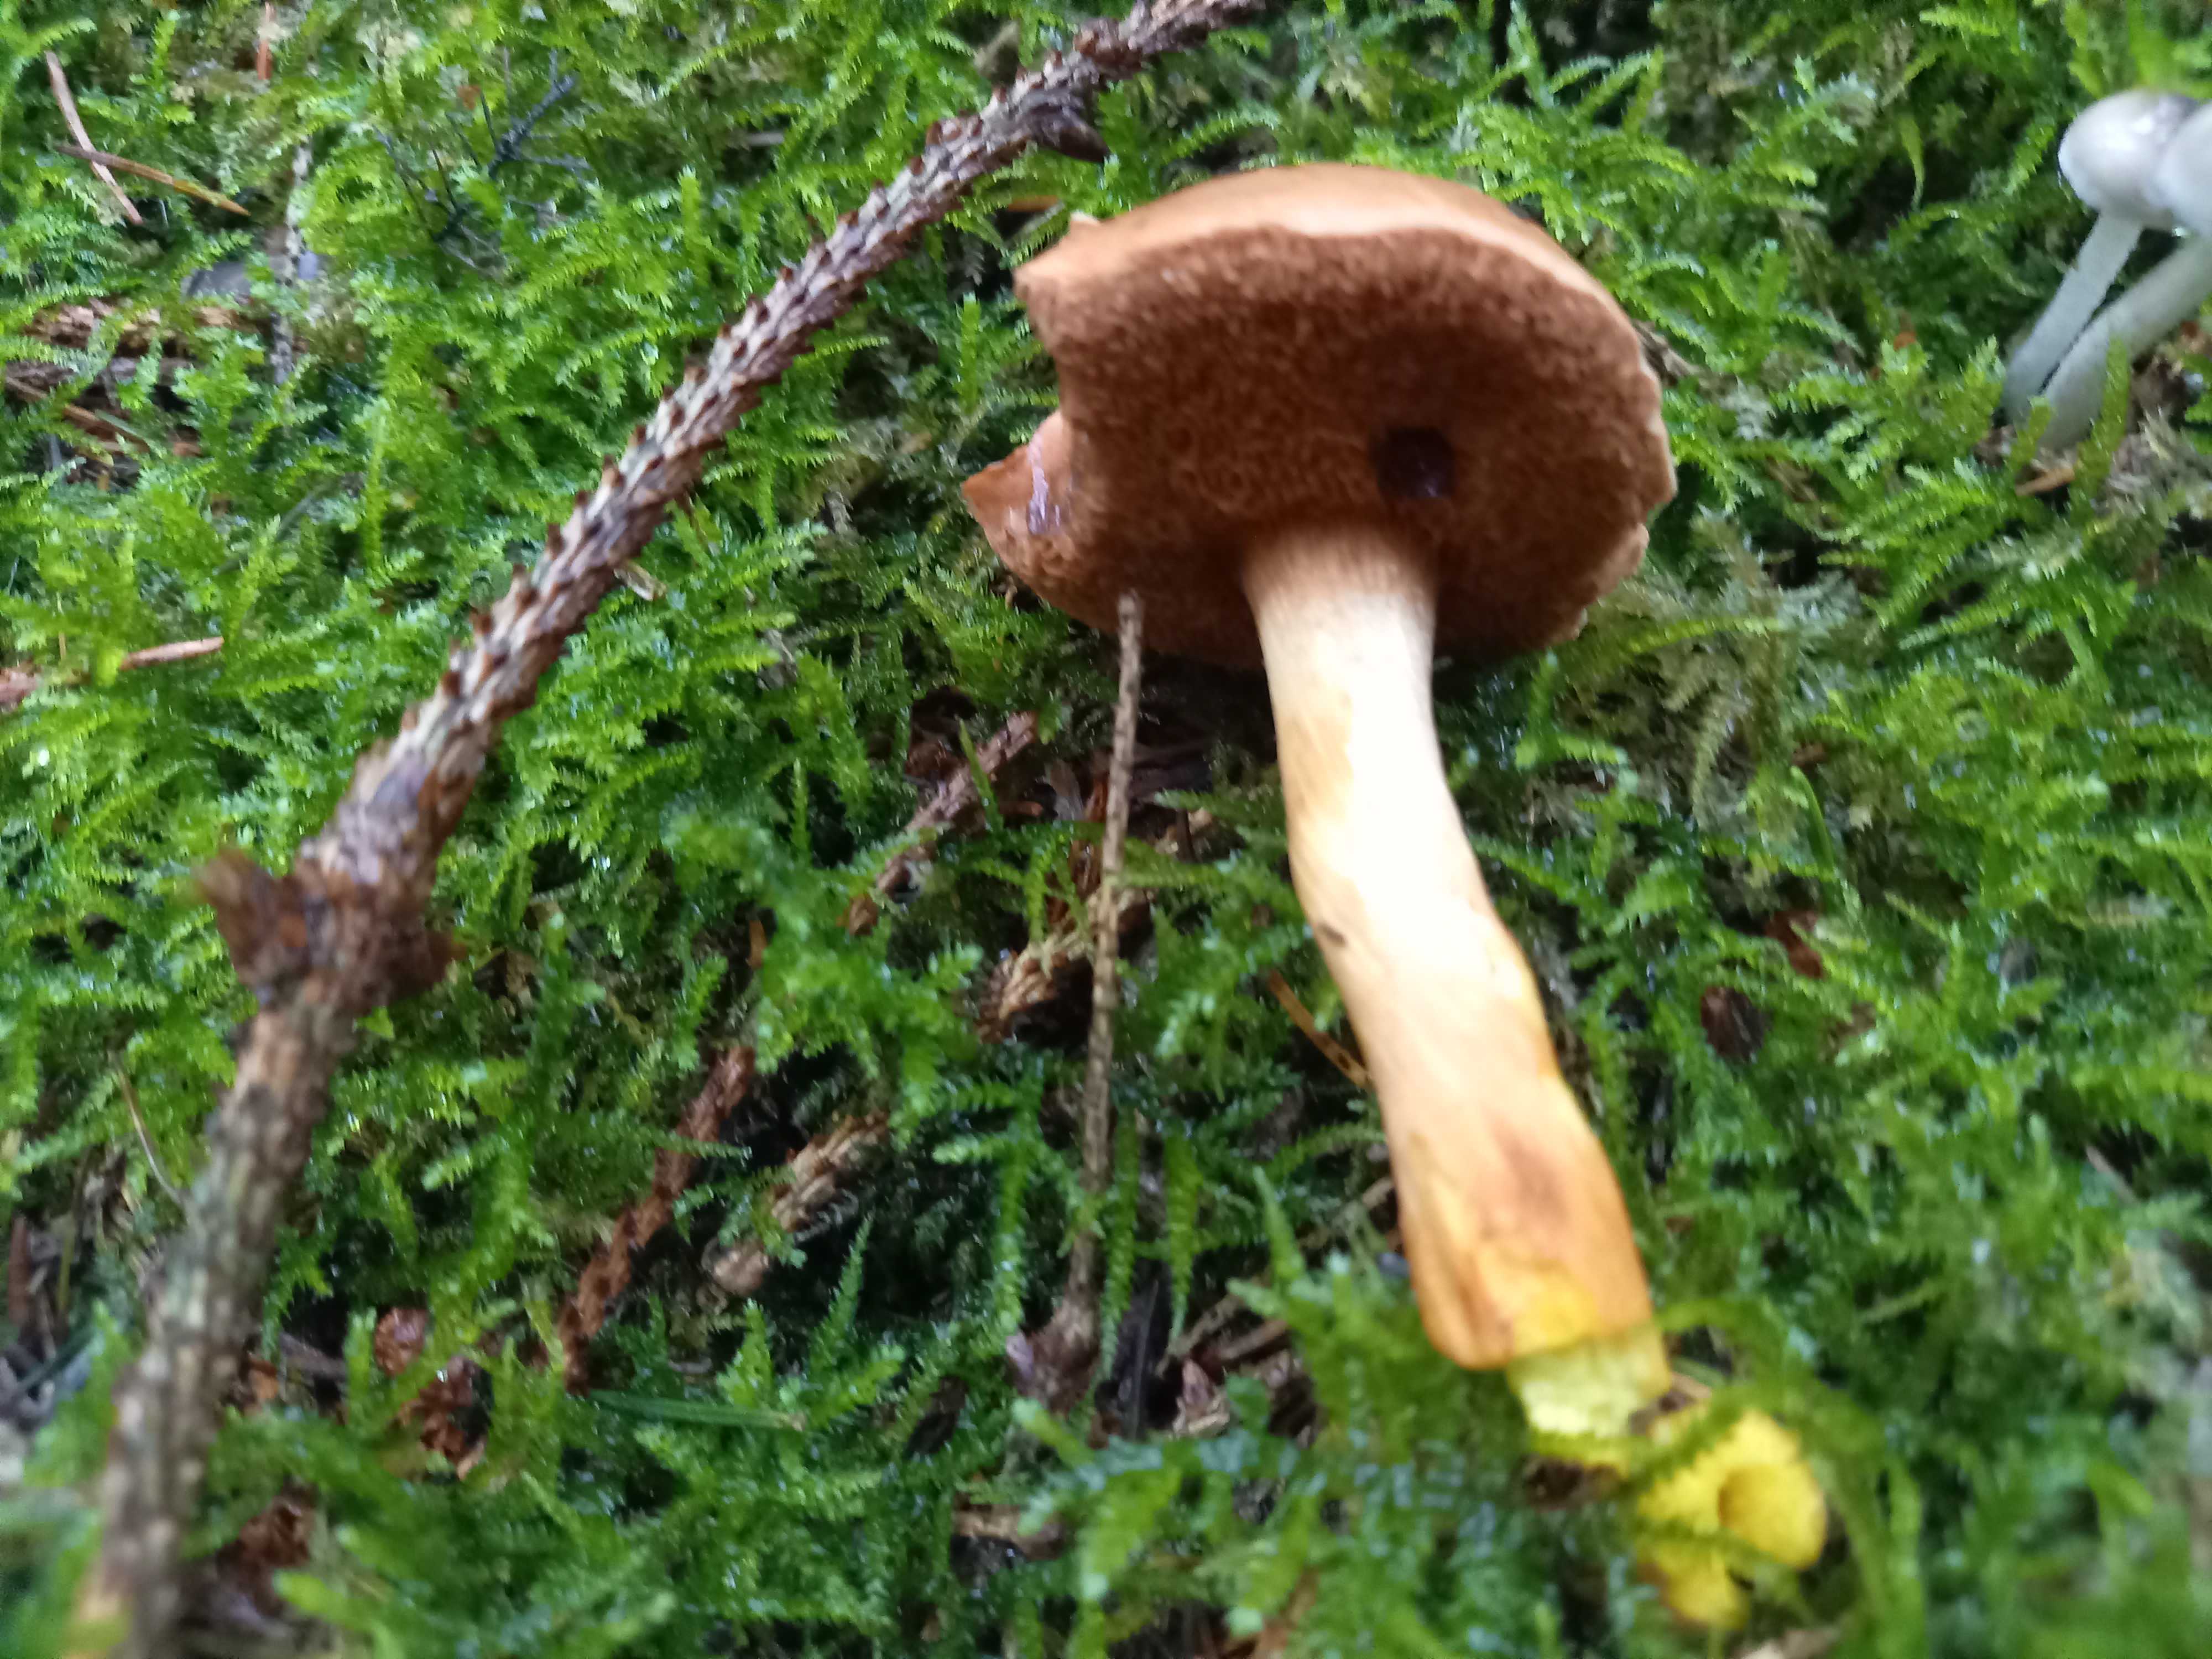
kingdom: Fungi
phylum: Basidiomycota
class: Agaricomycetes
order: Boletales
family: Boletaceae
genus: Chalciporus
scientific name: Chalciporus piperatus
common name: peberrørhat
